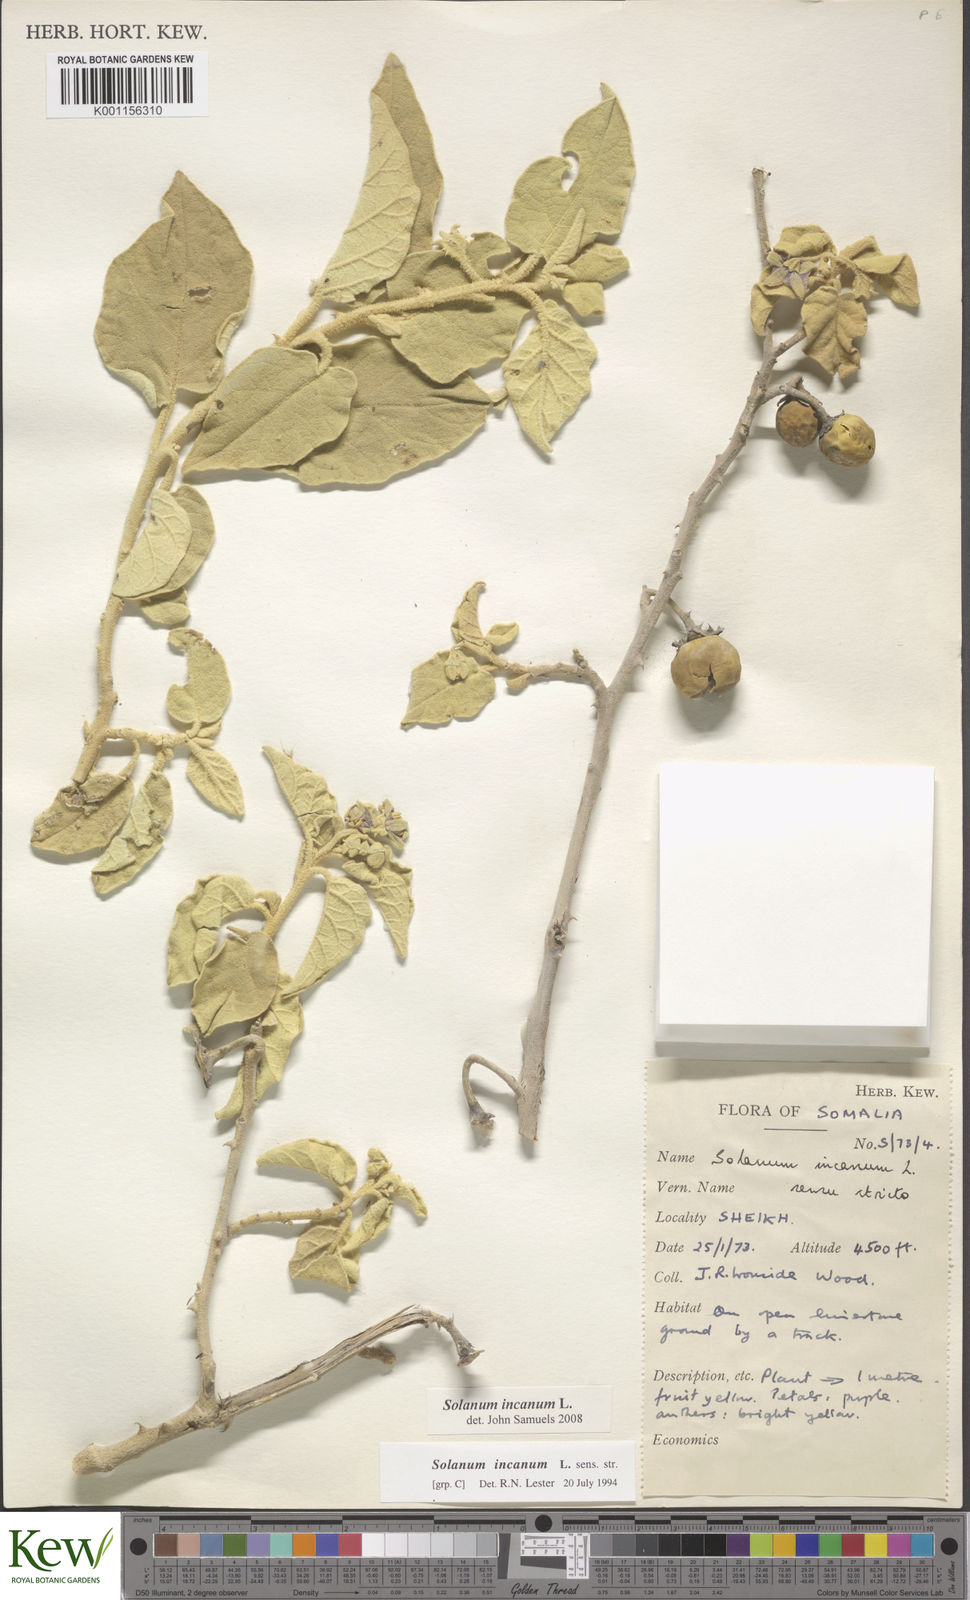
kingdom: Plantae
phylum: Tracheophyta
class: Magnoliopsida
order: Solanales
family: Solanaceae
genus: Solanum
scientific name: Solanum incanum
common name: Bitter apple
